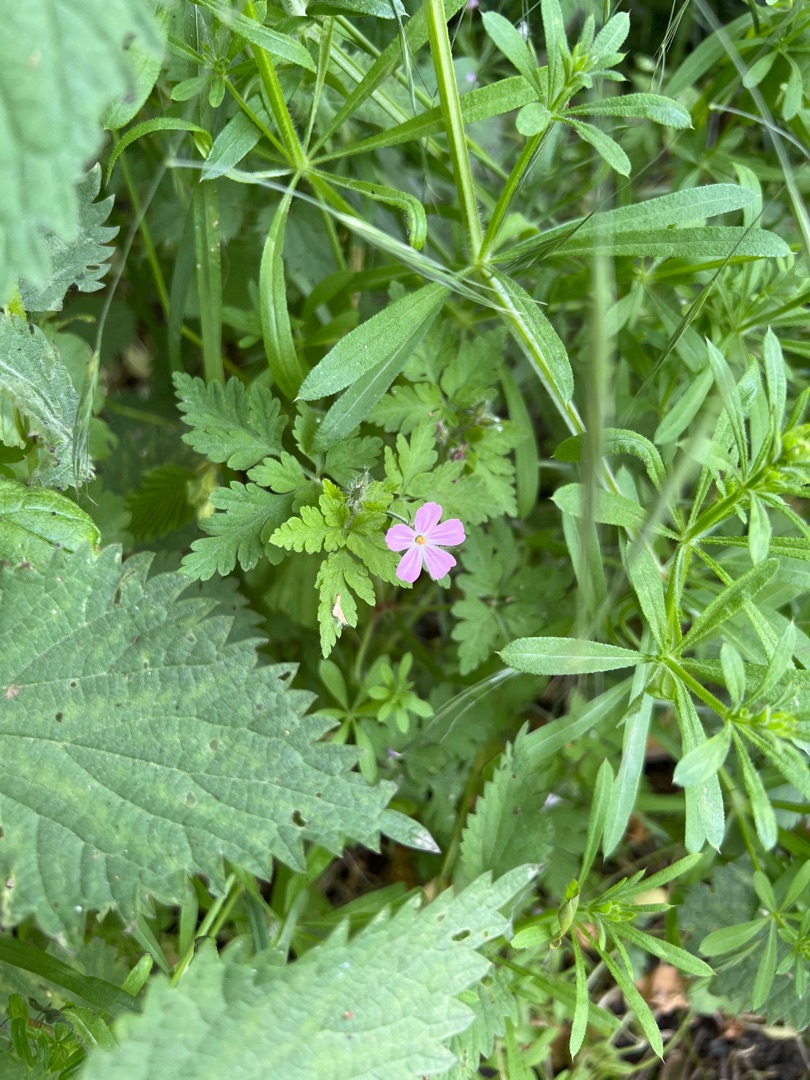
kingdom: Plantae
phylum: Tracheophyta
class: Magnoliopsida
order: Geraniales
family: Geraniaceae
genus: Geranium
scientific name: Geranium robertianum
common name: Stinkende storkenæb
